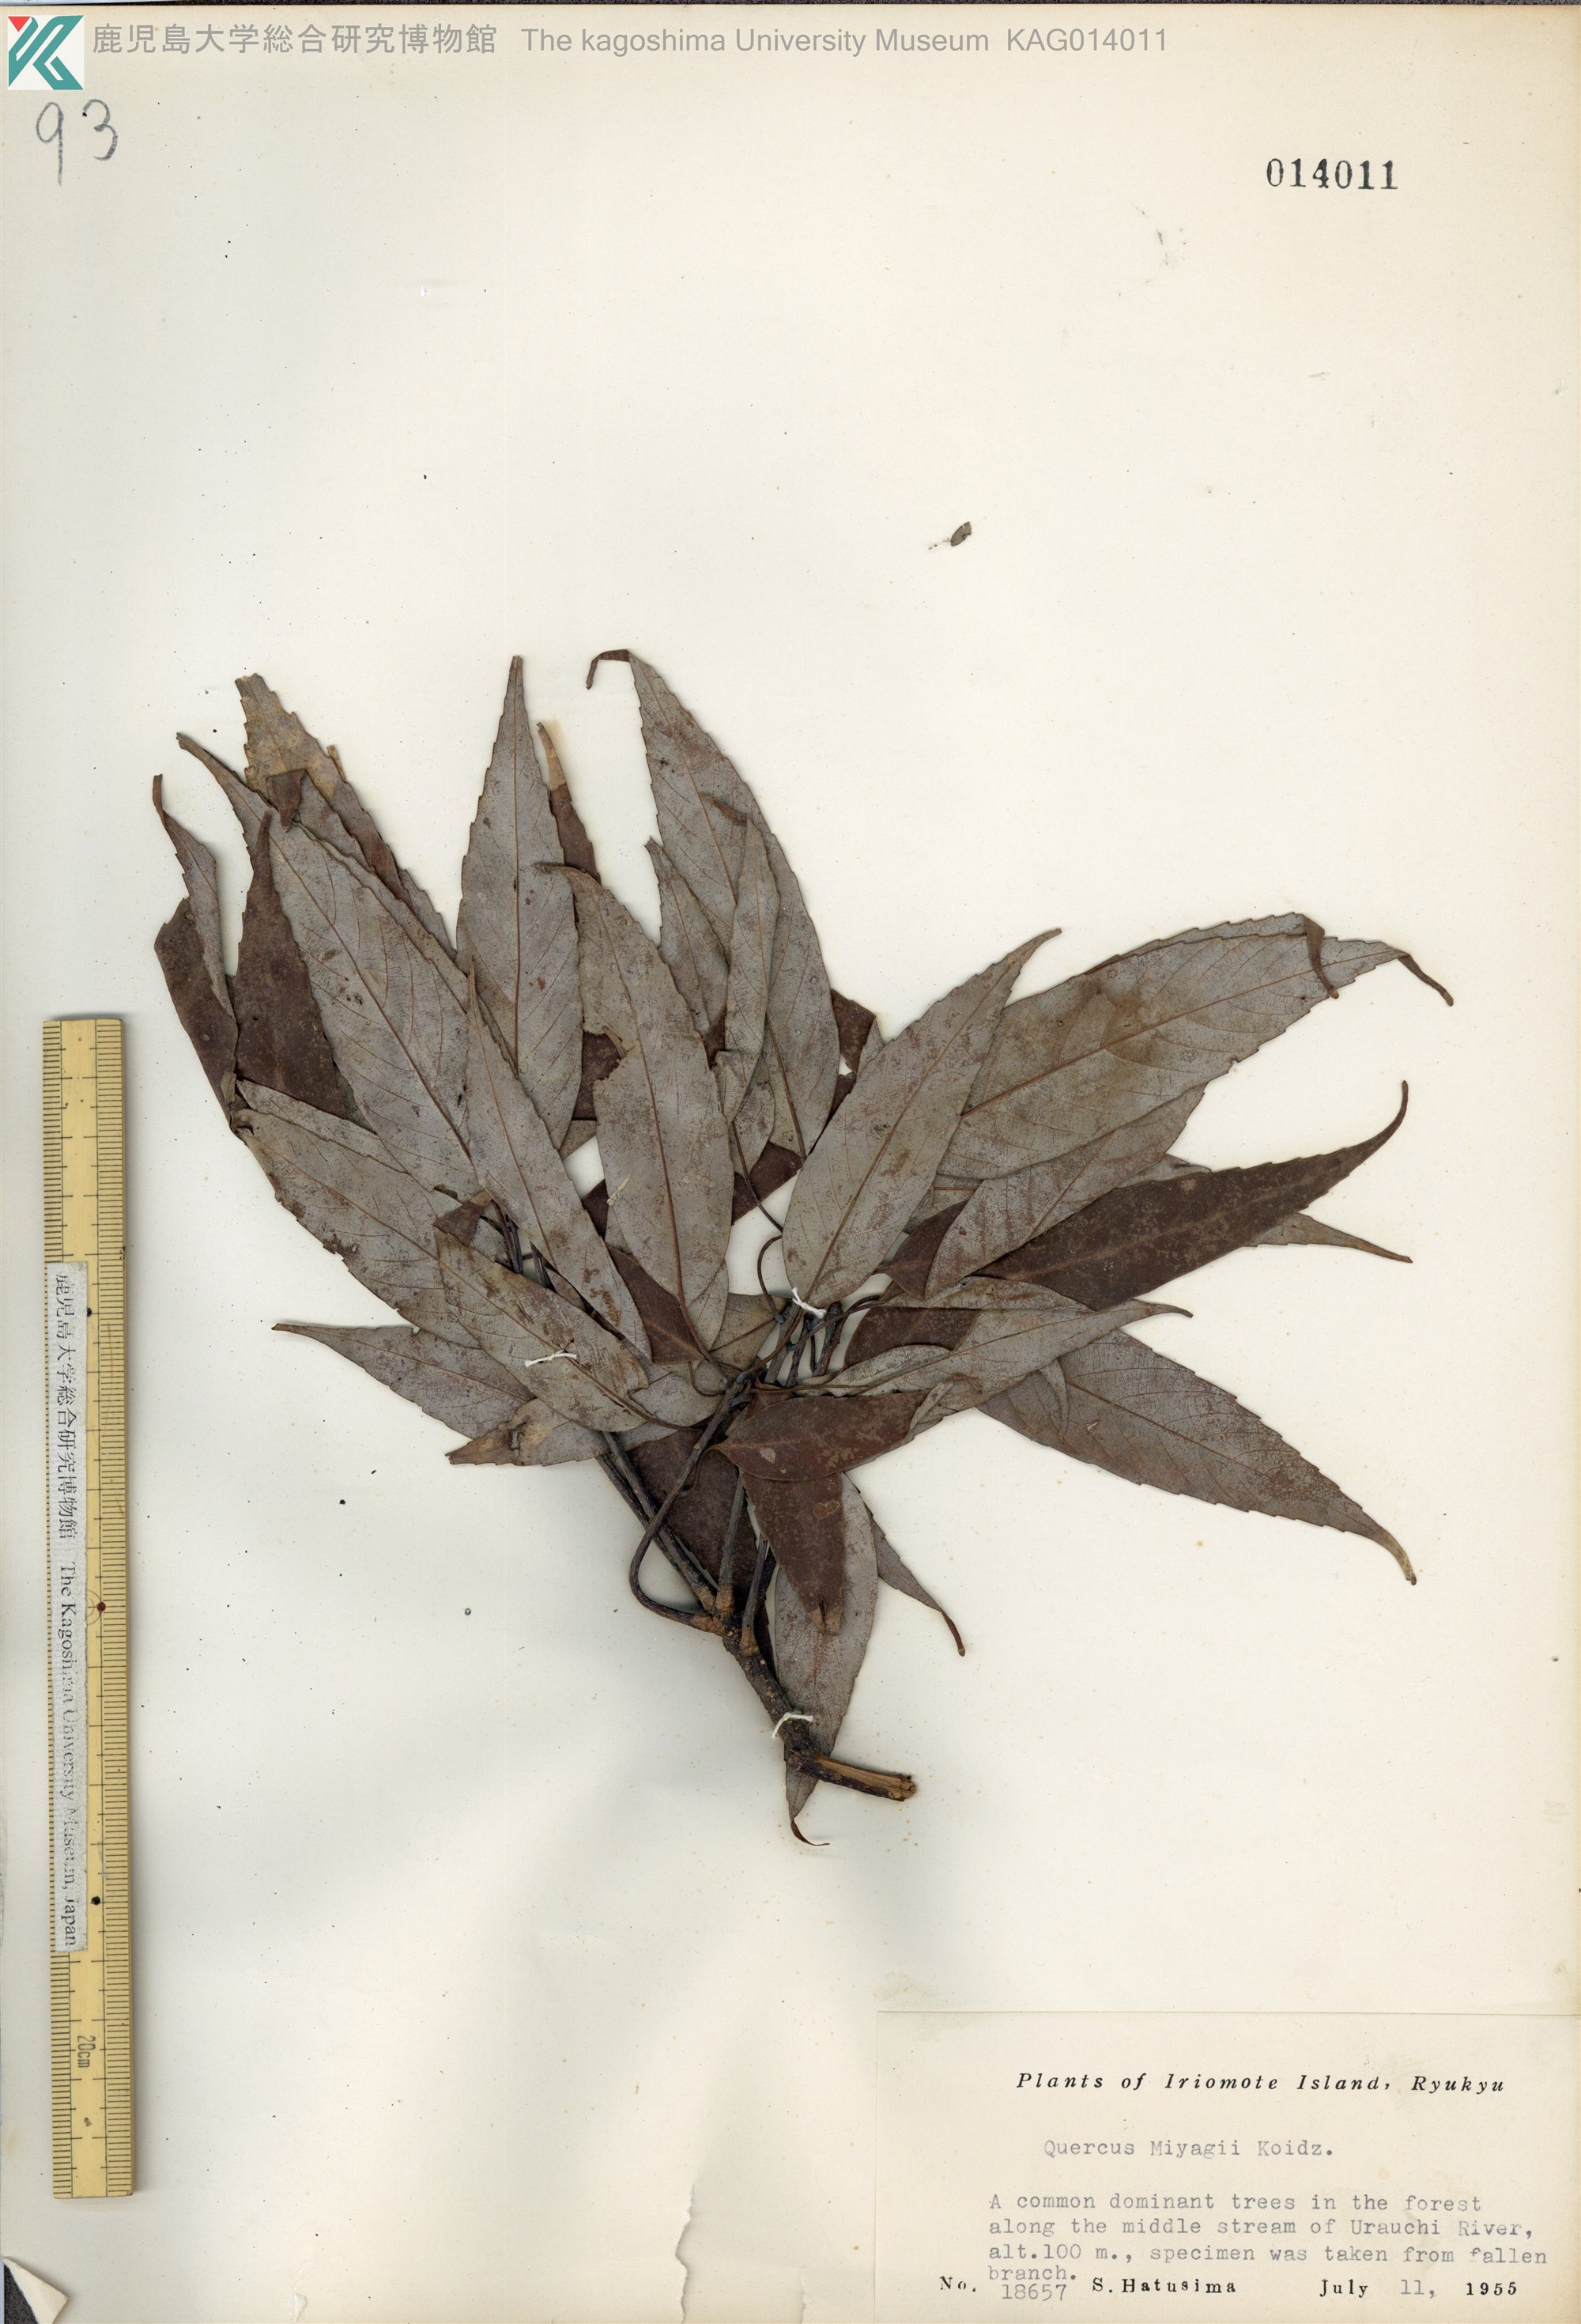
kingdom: Plantae
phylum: Tracheophyta
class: Magnoliopsida
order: Fagales
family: Fagaceae
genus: Quercus
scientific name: Quercus miyagii
